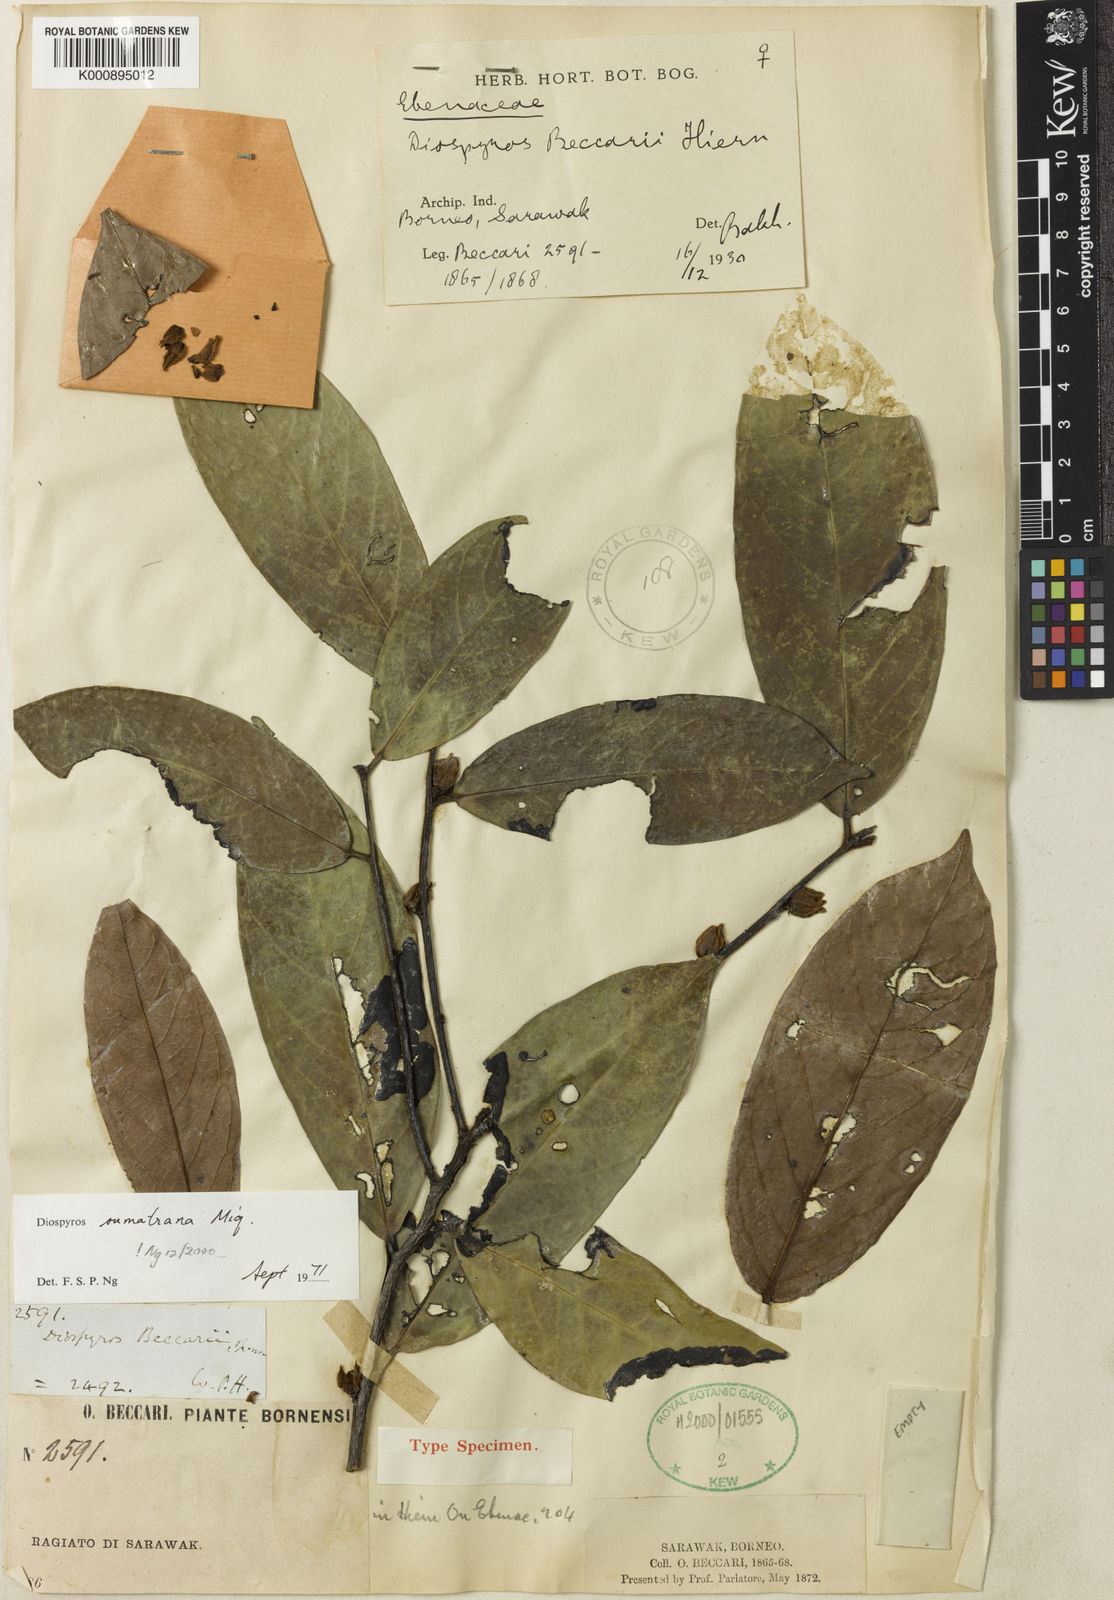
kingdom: Plantae
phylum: Tracheophyta
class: Magnoliopsida
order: Ericales
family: Ebenaceae
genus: Diospyros
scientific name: Diospyros sumatrana
